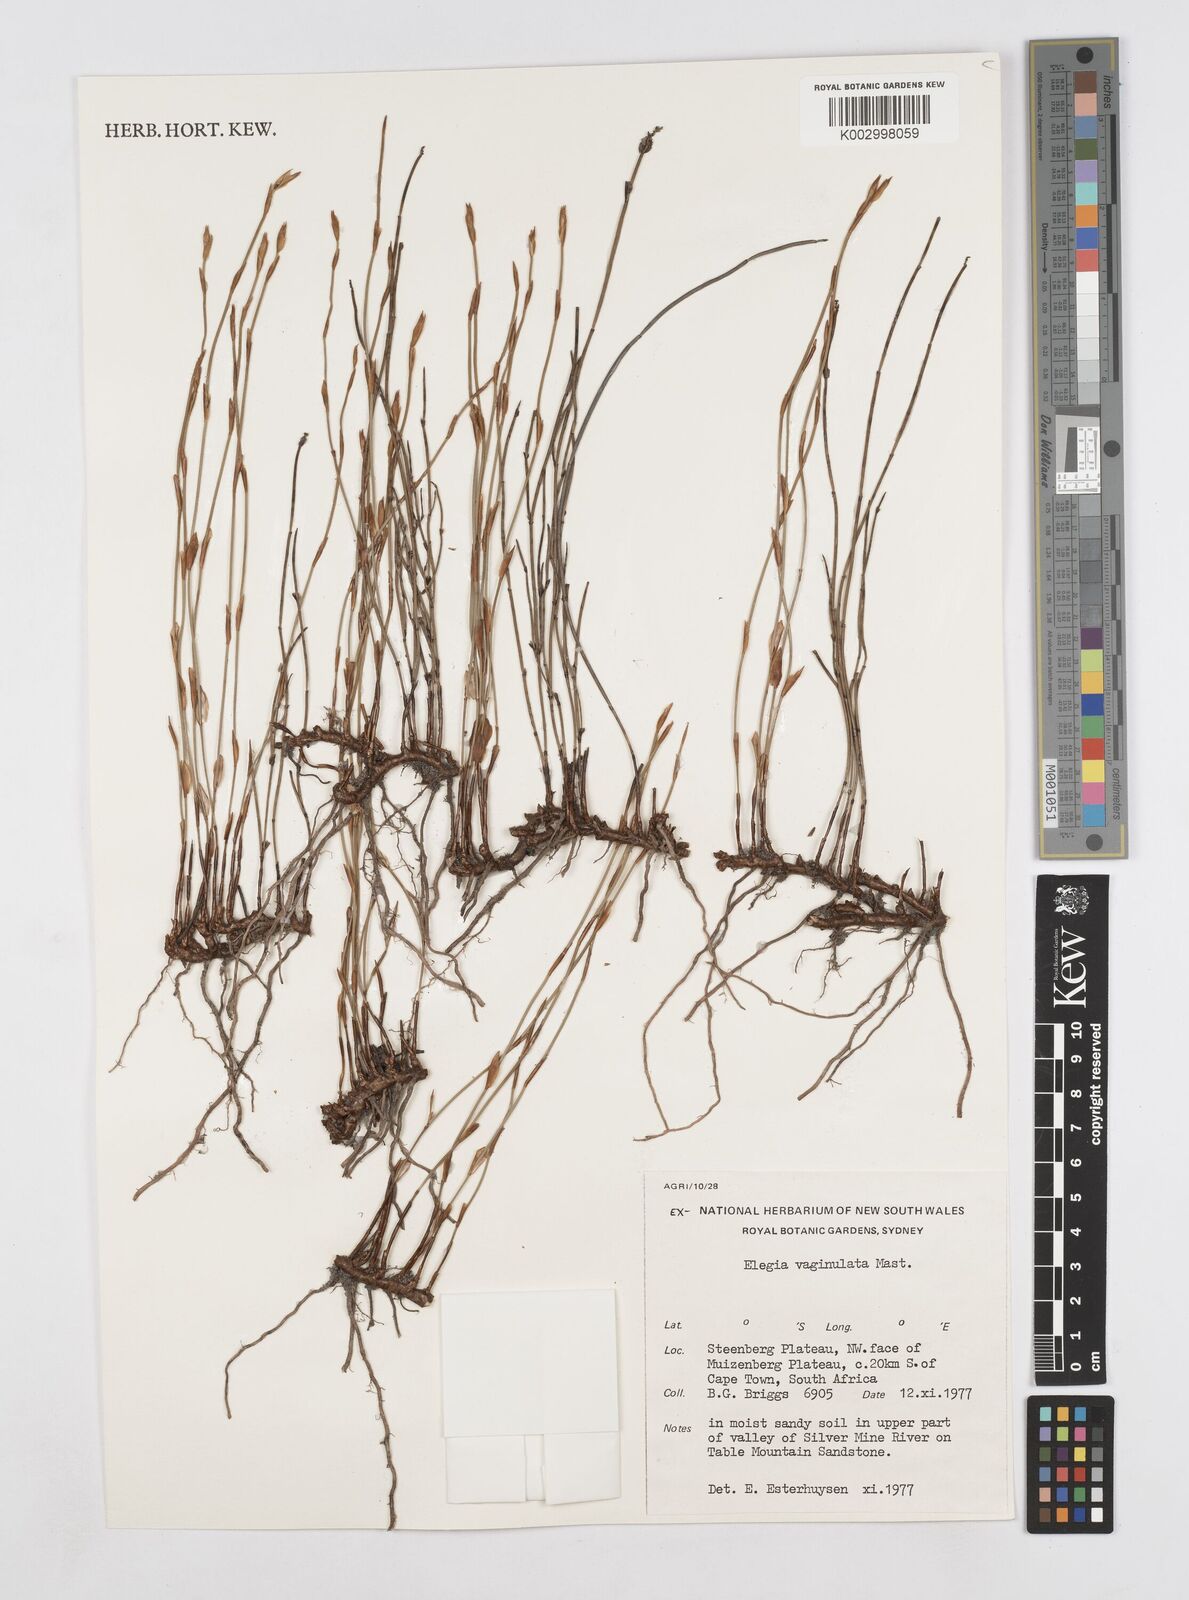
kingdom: Plantae
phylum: Tracheophyta
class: Liliopsida
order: Poales
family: Restionaceae
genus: Elegia
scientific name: Elegia vaginulata
